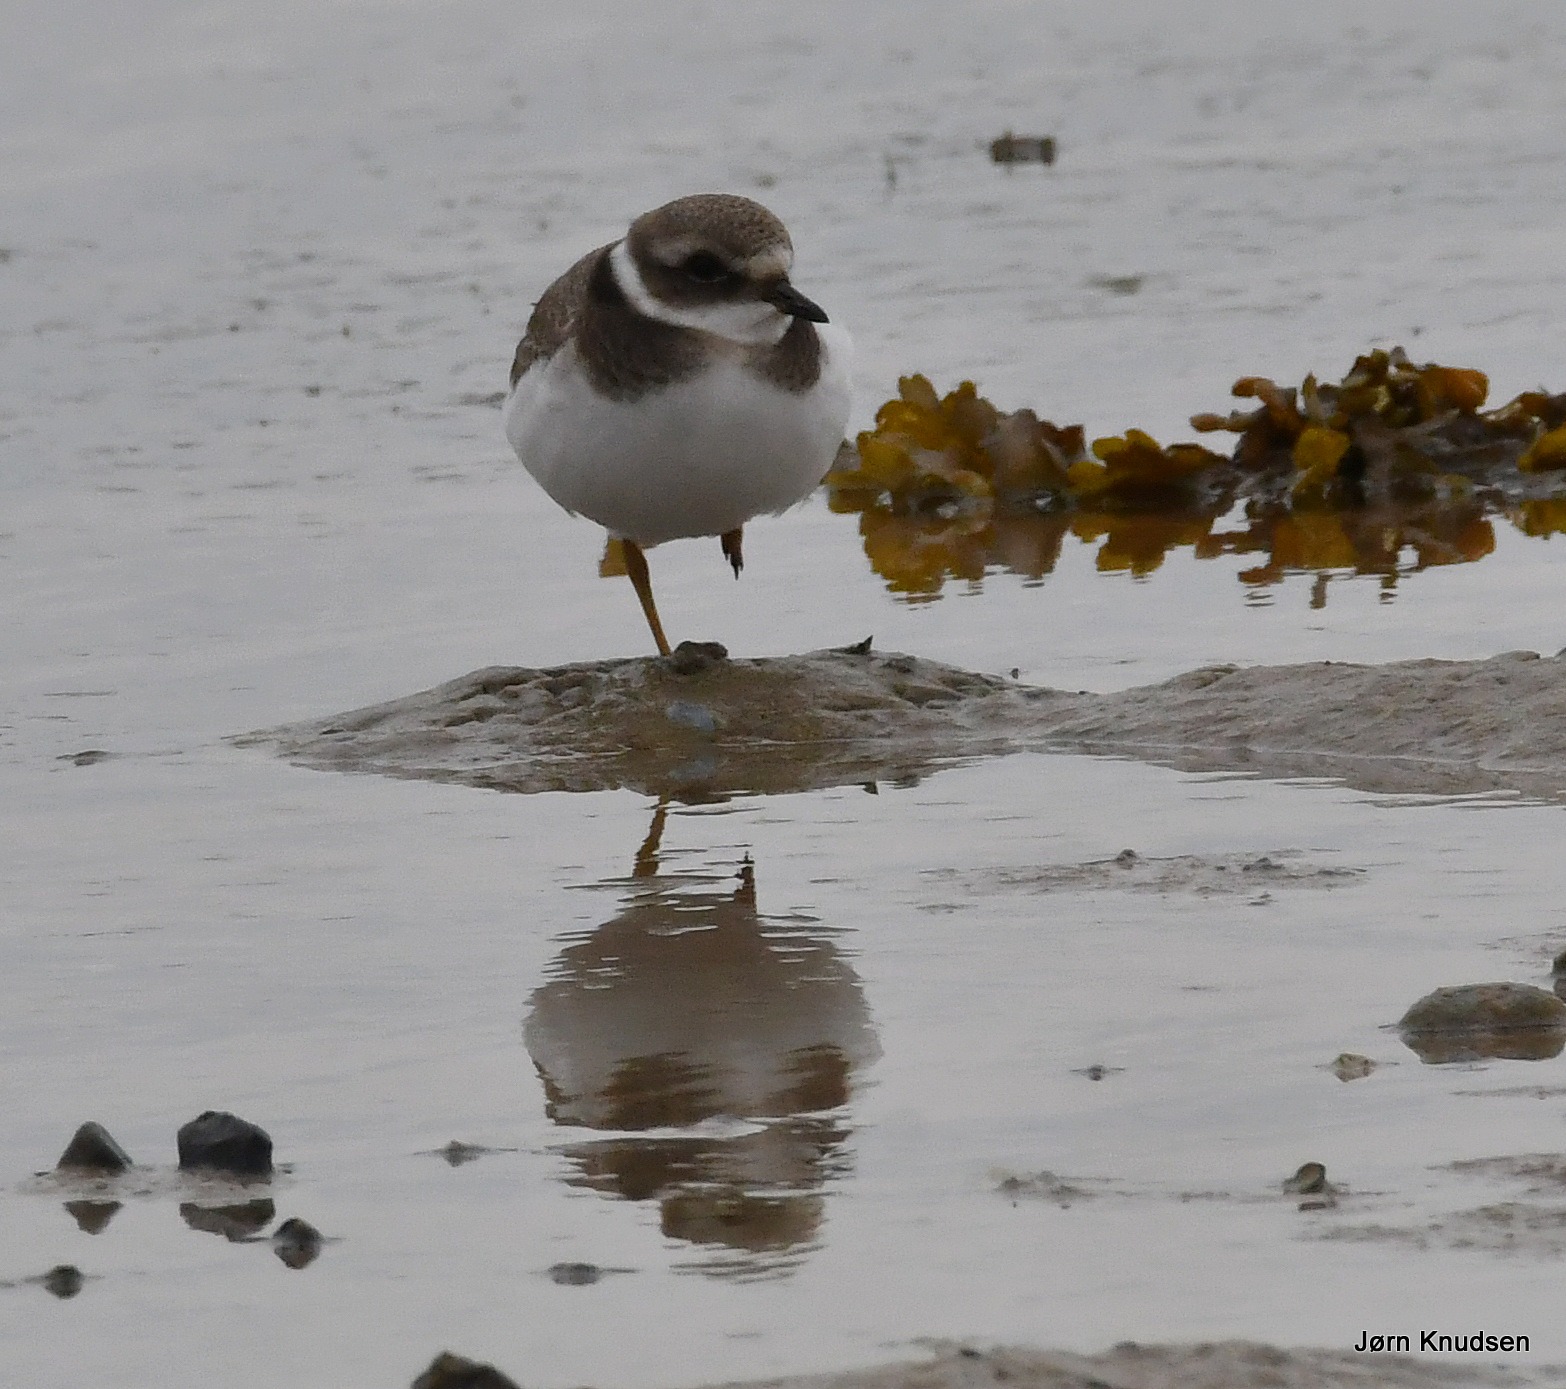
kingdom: Animalia
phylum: Chordata
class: Aves
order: Charadriiformes
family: Charadriidae
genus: Charadrius
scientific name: Charadrius hiaticula
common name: Stor præstekrave
